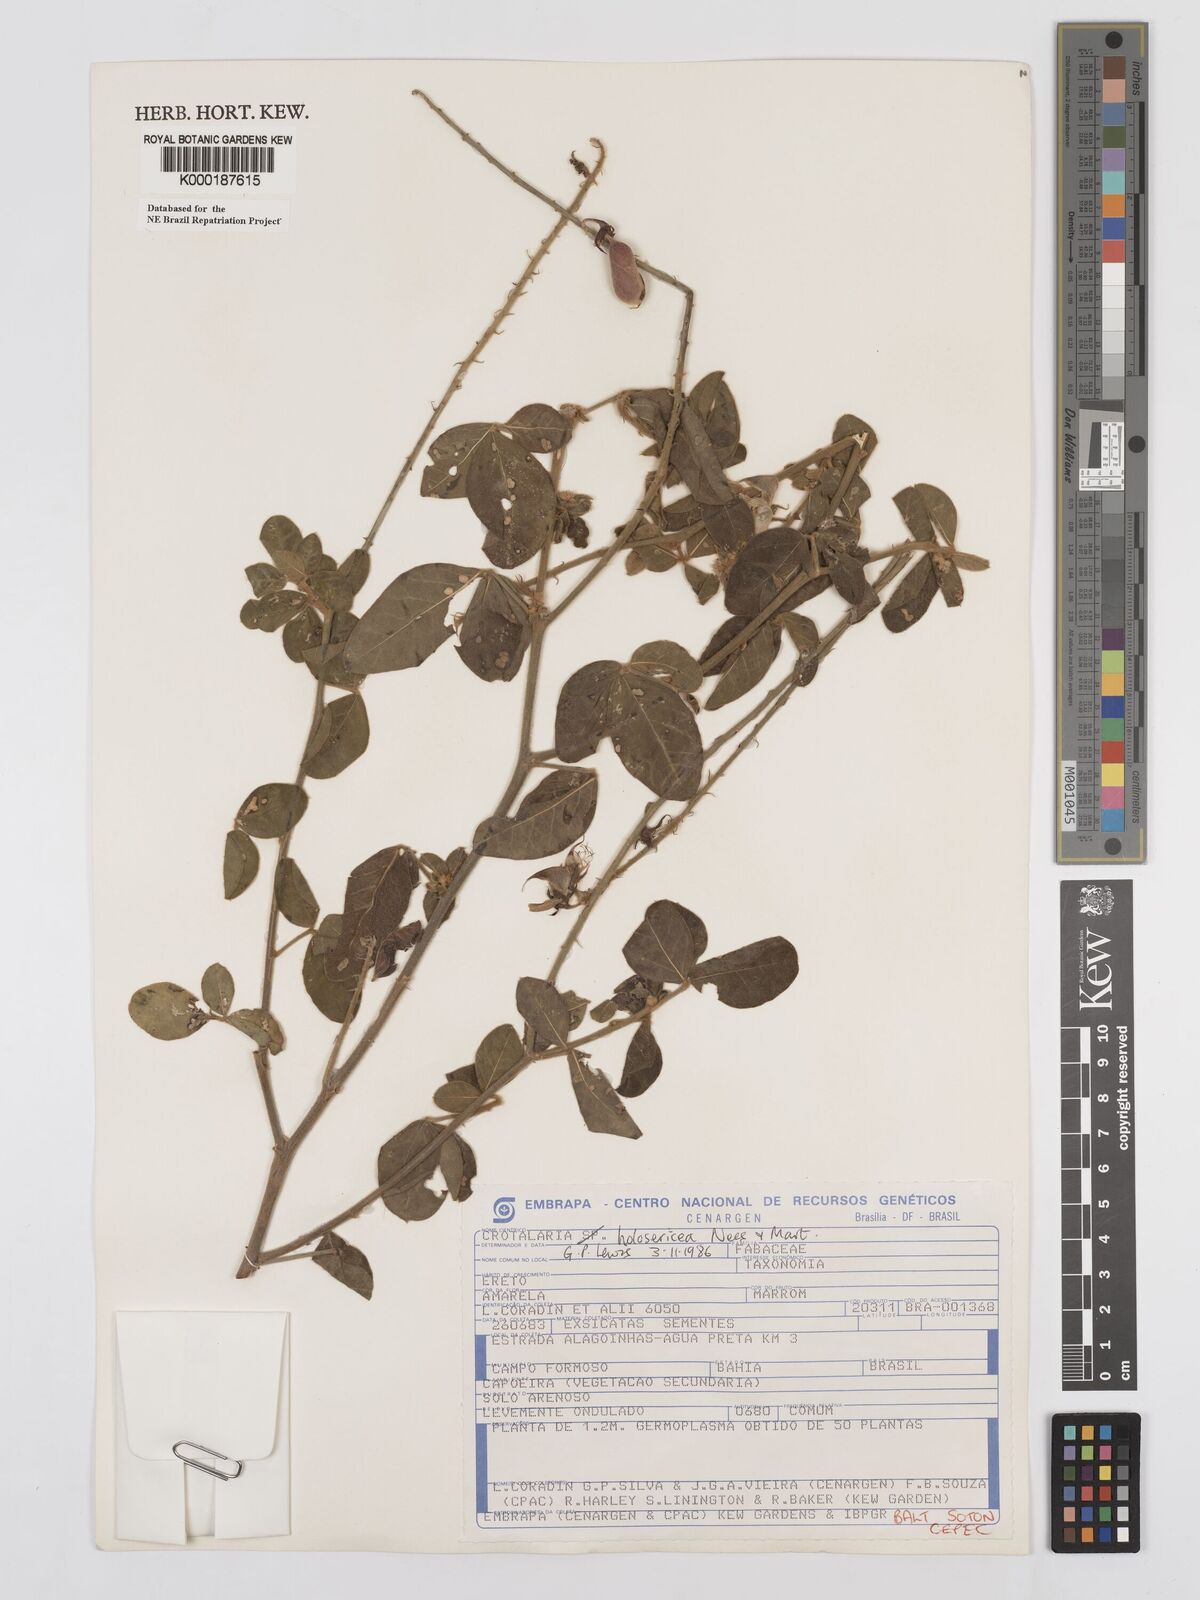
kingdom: Plantae
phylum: Tracheophyta
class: Magnoliopsida
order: Fabales
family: Fabaceae
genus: Crotalaria
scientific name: Crotalaria holosericea
